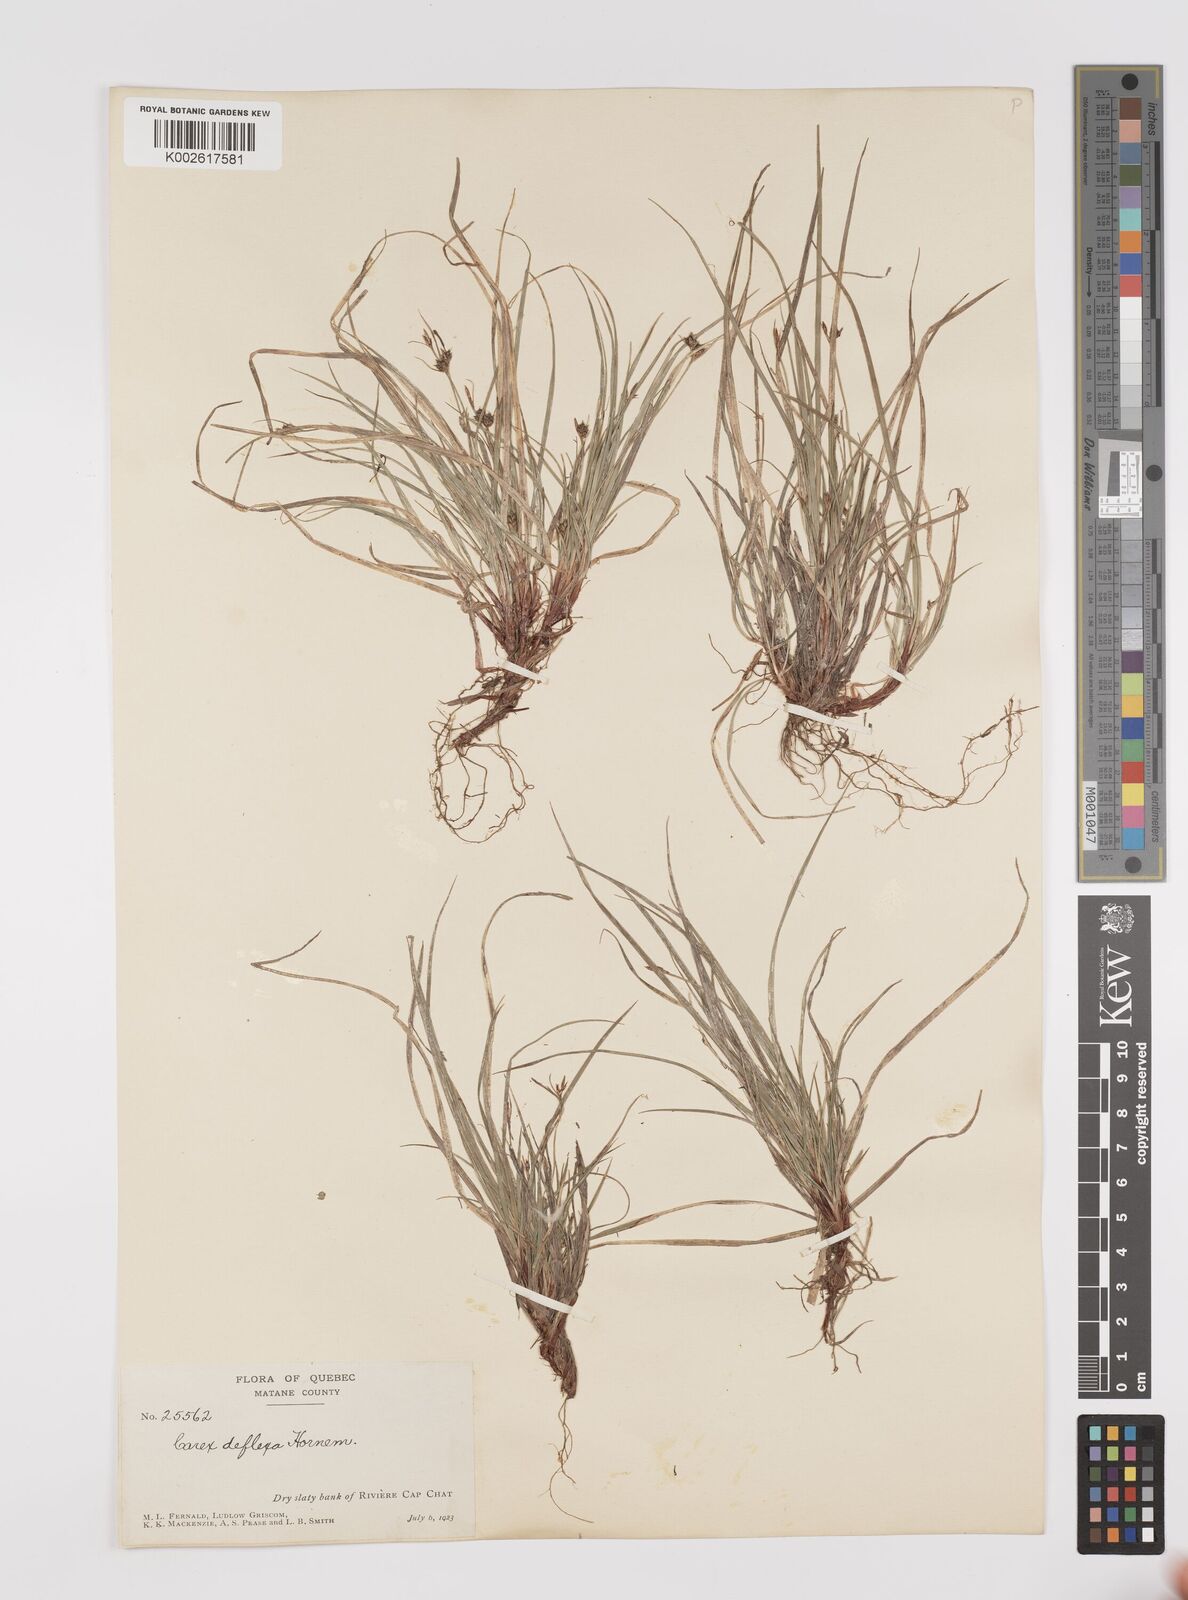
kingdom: Plantae
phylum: Tracheophyta
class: Liliopsida
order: Poales
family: Cyperaceae
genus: Carex
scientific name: Carex deflexa
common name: Bent northern sedge
